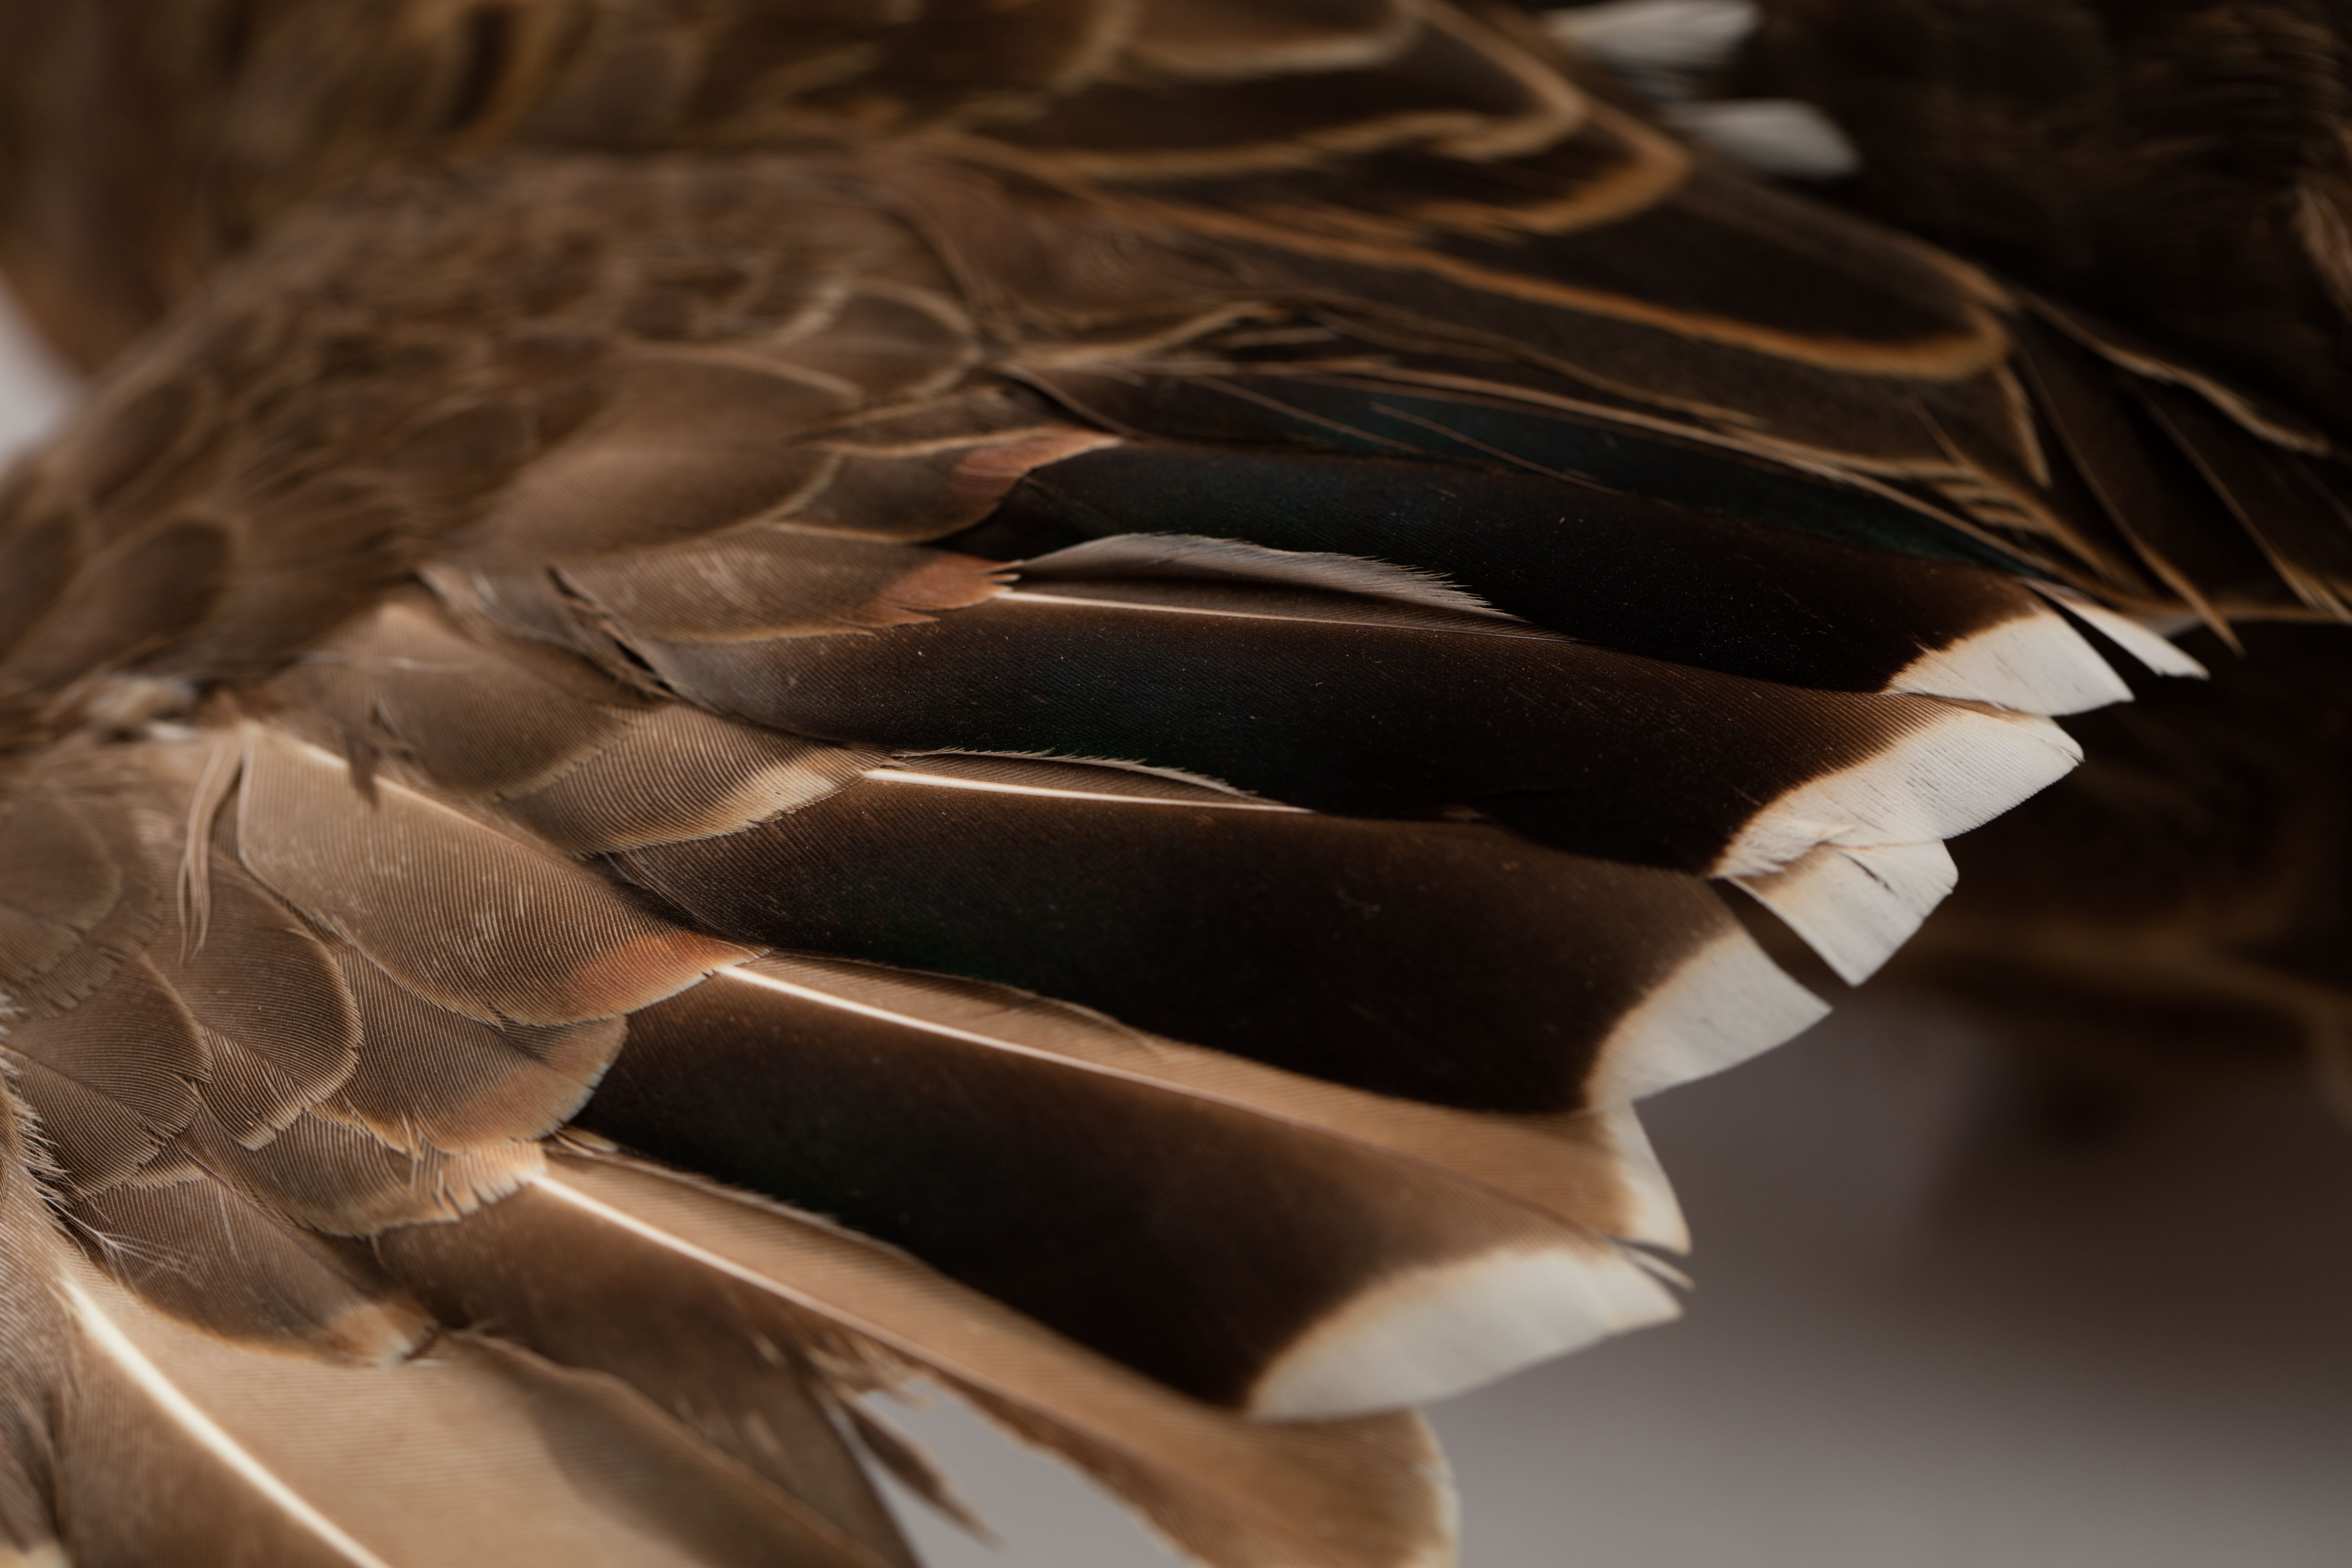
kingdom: Animalia
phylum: Chordata
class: Aves
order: Anseriformes
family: Anatidae
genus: Anas
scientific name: Anas chlorotis
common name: Brown teal
